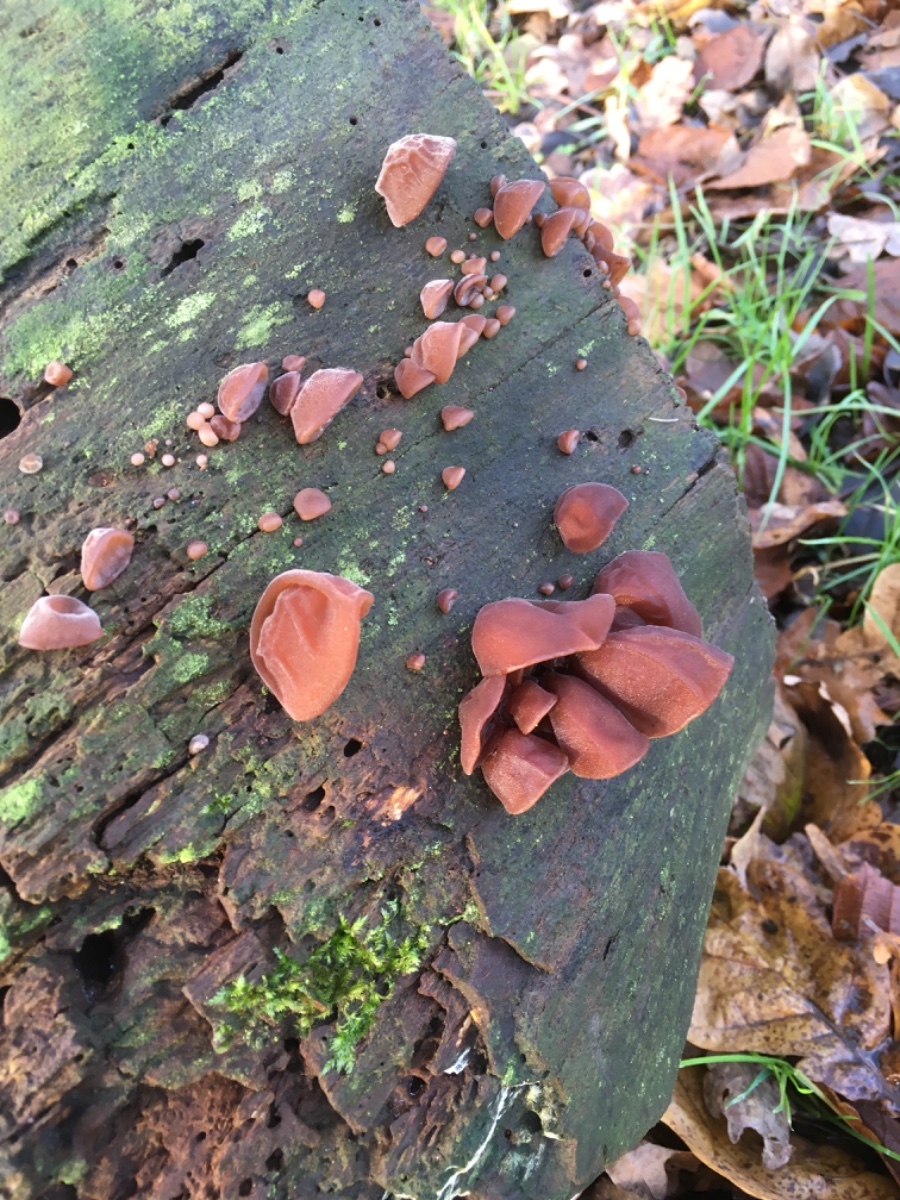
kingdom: Fungi
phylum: Basidiomycota
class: Agaricomycetes
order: Auriculariales
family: Auriculariaceae
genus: Auricularia
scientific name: Auricularia auricula-judae
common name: almindelig judasøre
